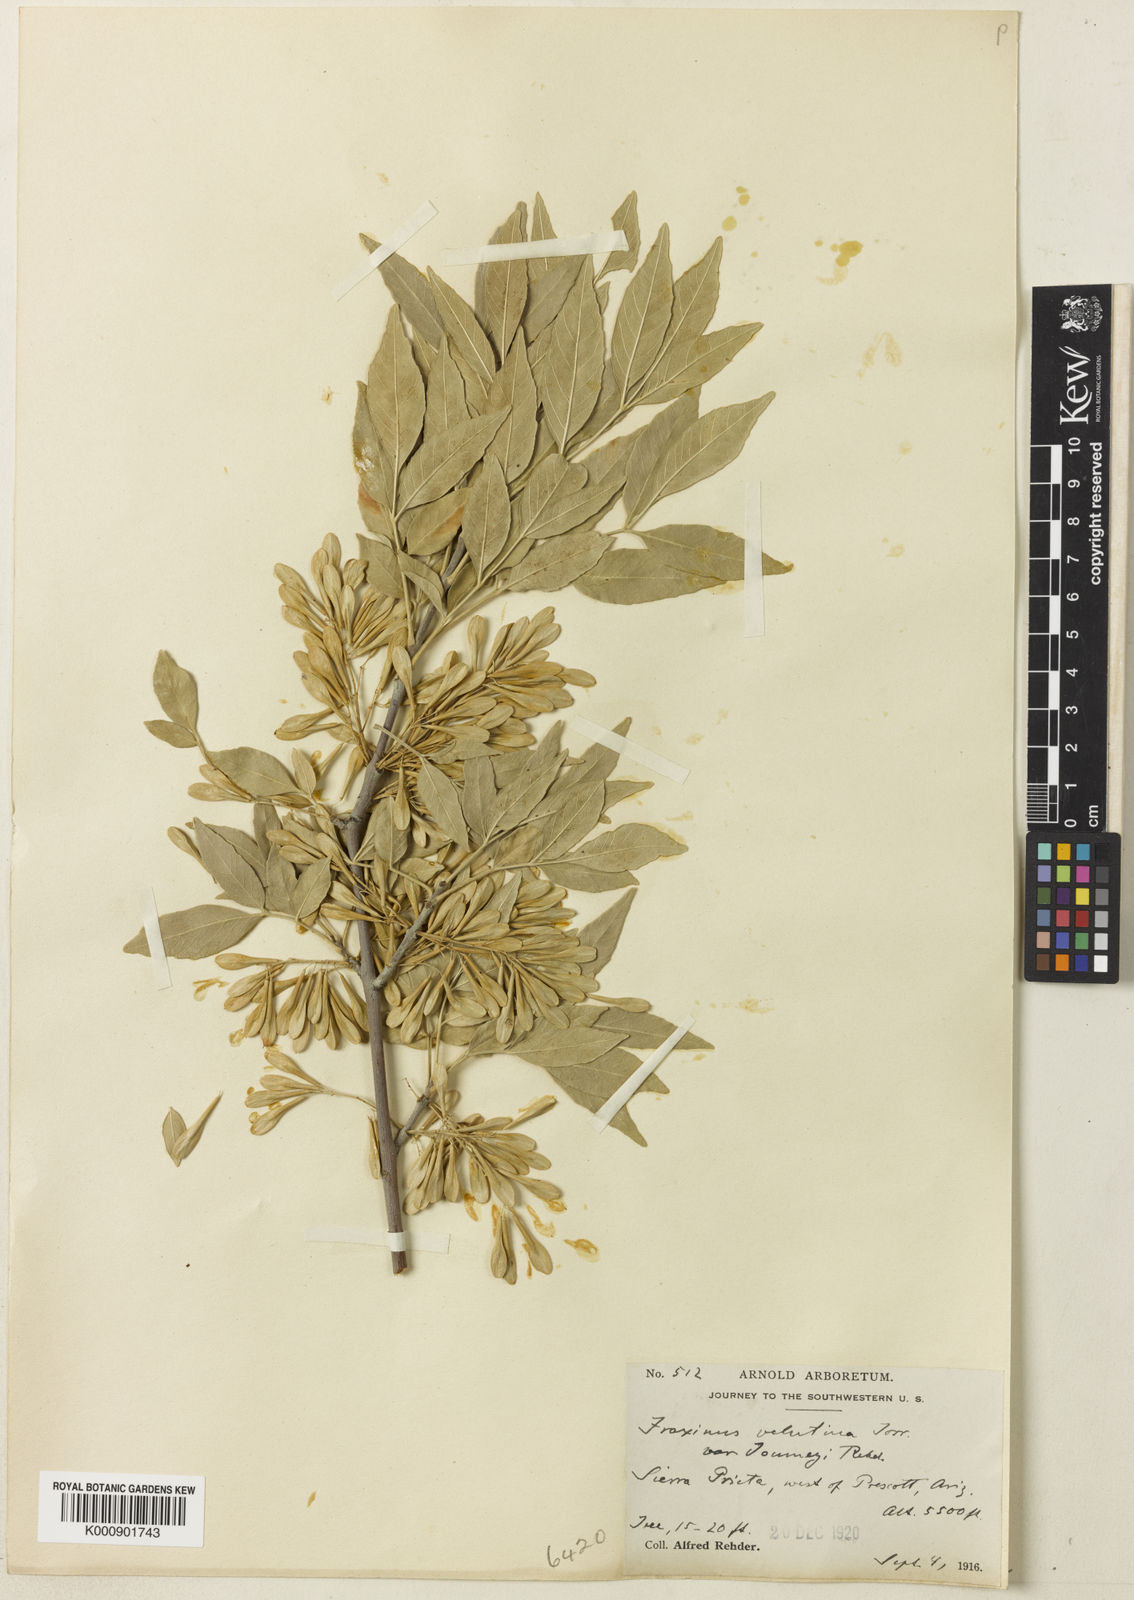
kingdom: Plantae
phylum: Tracheophyta
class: Magnoliopsida
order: Lamiales
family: Oleaceae
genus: Fraxinus
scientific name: Fraxinus velutina
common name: Arizon ash
